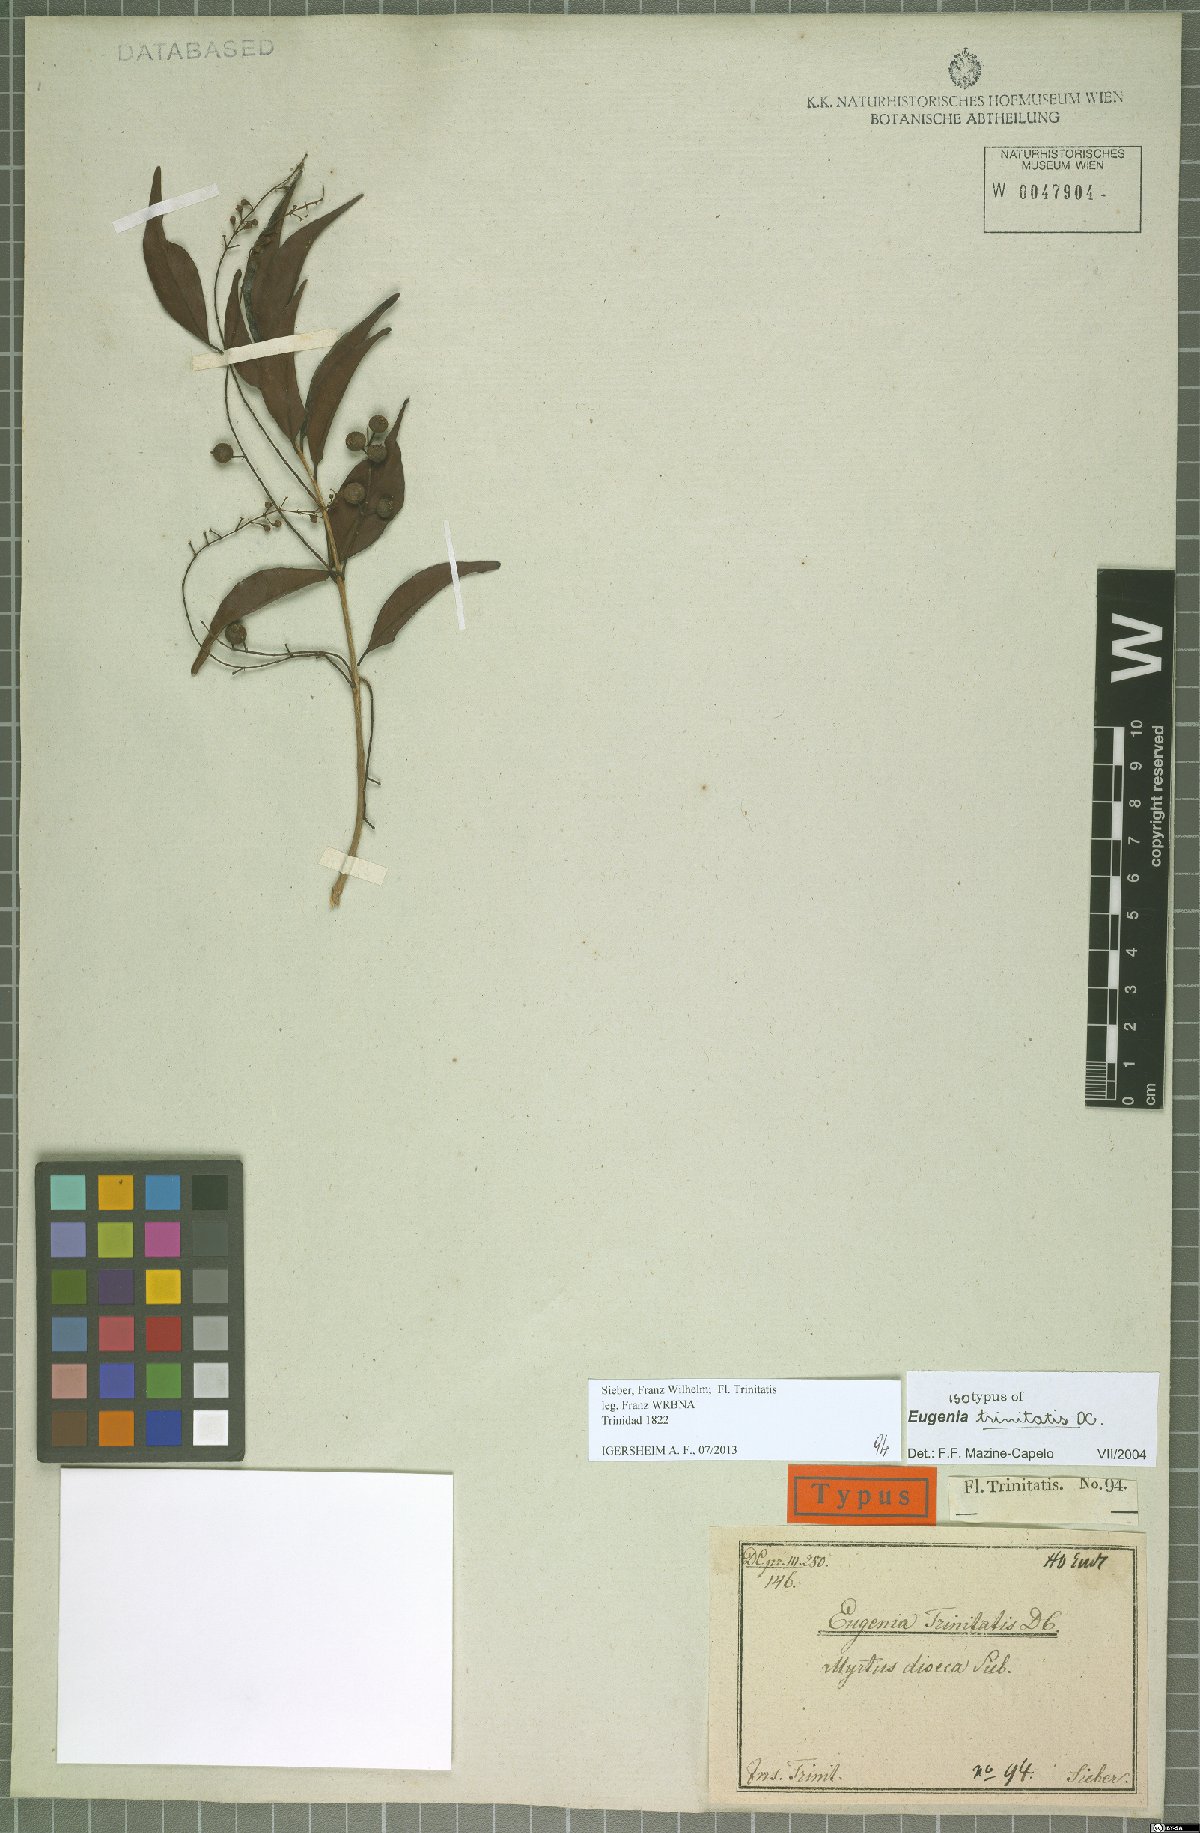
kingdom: Plantae
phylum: Tracheophyta
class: Magnoliopsida
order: Myrtales
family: Myrtaceae
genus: Eugenia
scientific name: Eugenia trinitatis
